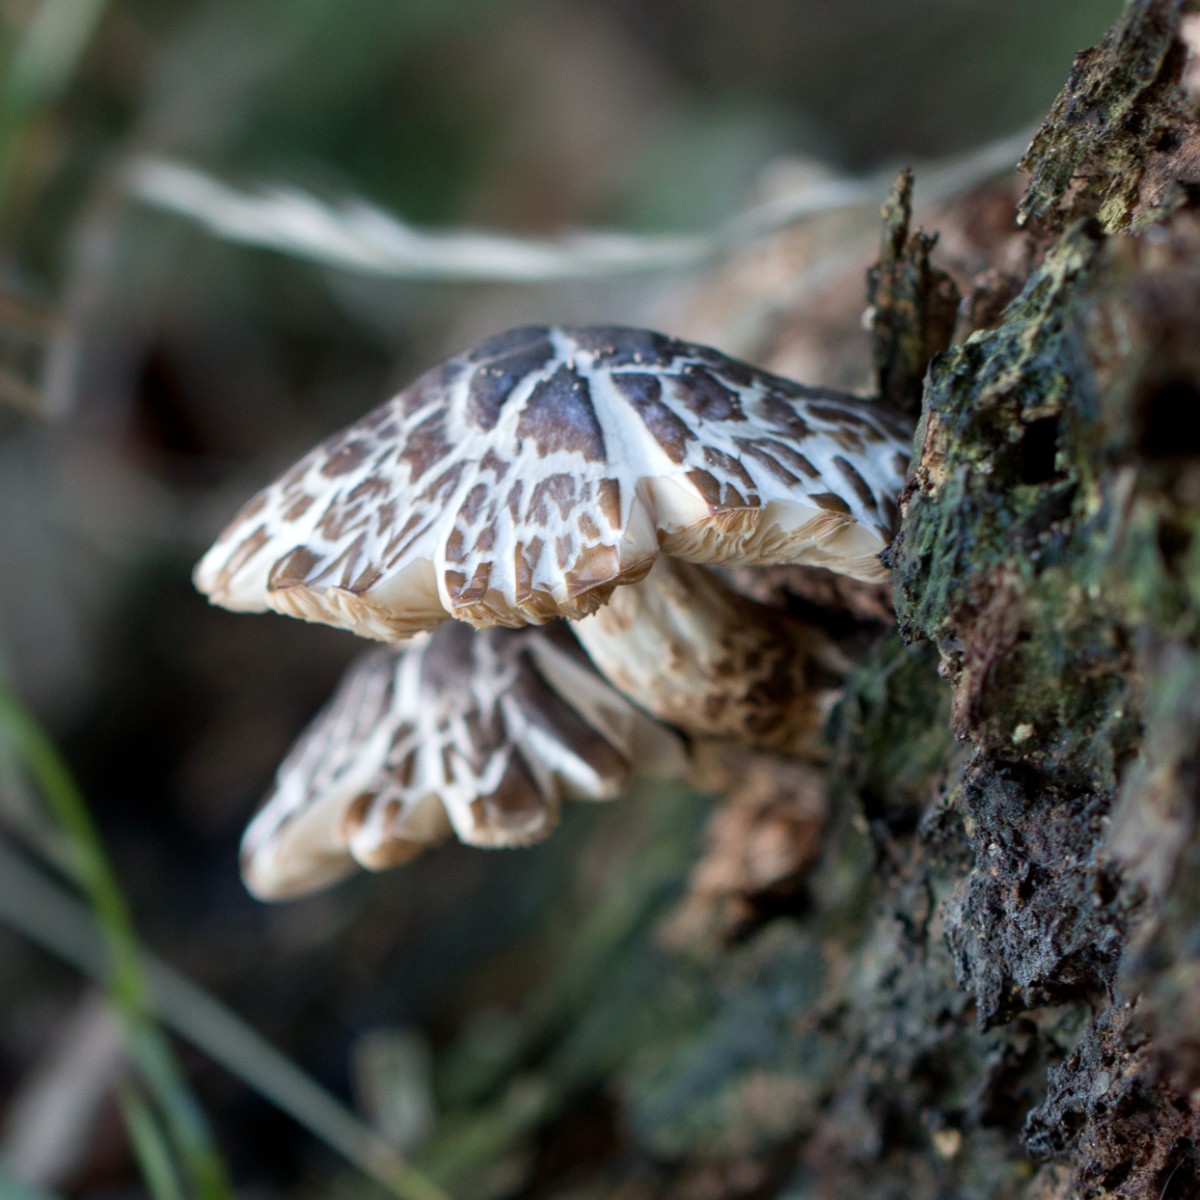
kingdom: Fungi
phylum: Basidiomycota
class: Agaricomycetes
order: Agaricales
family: Pluteaceae
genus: Pluteus
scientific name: Pluteus
